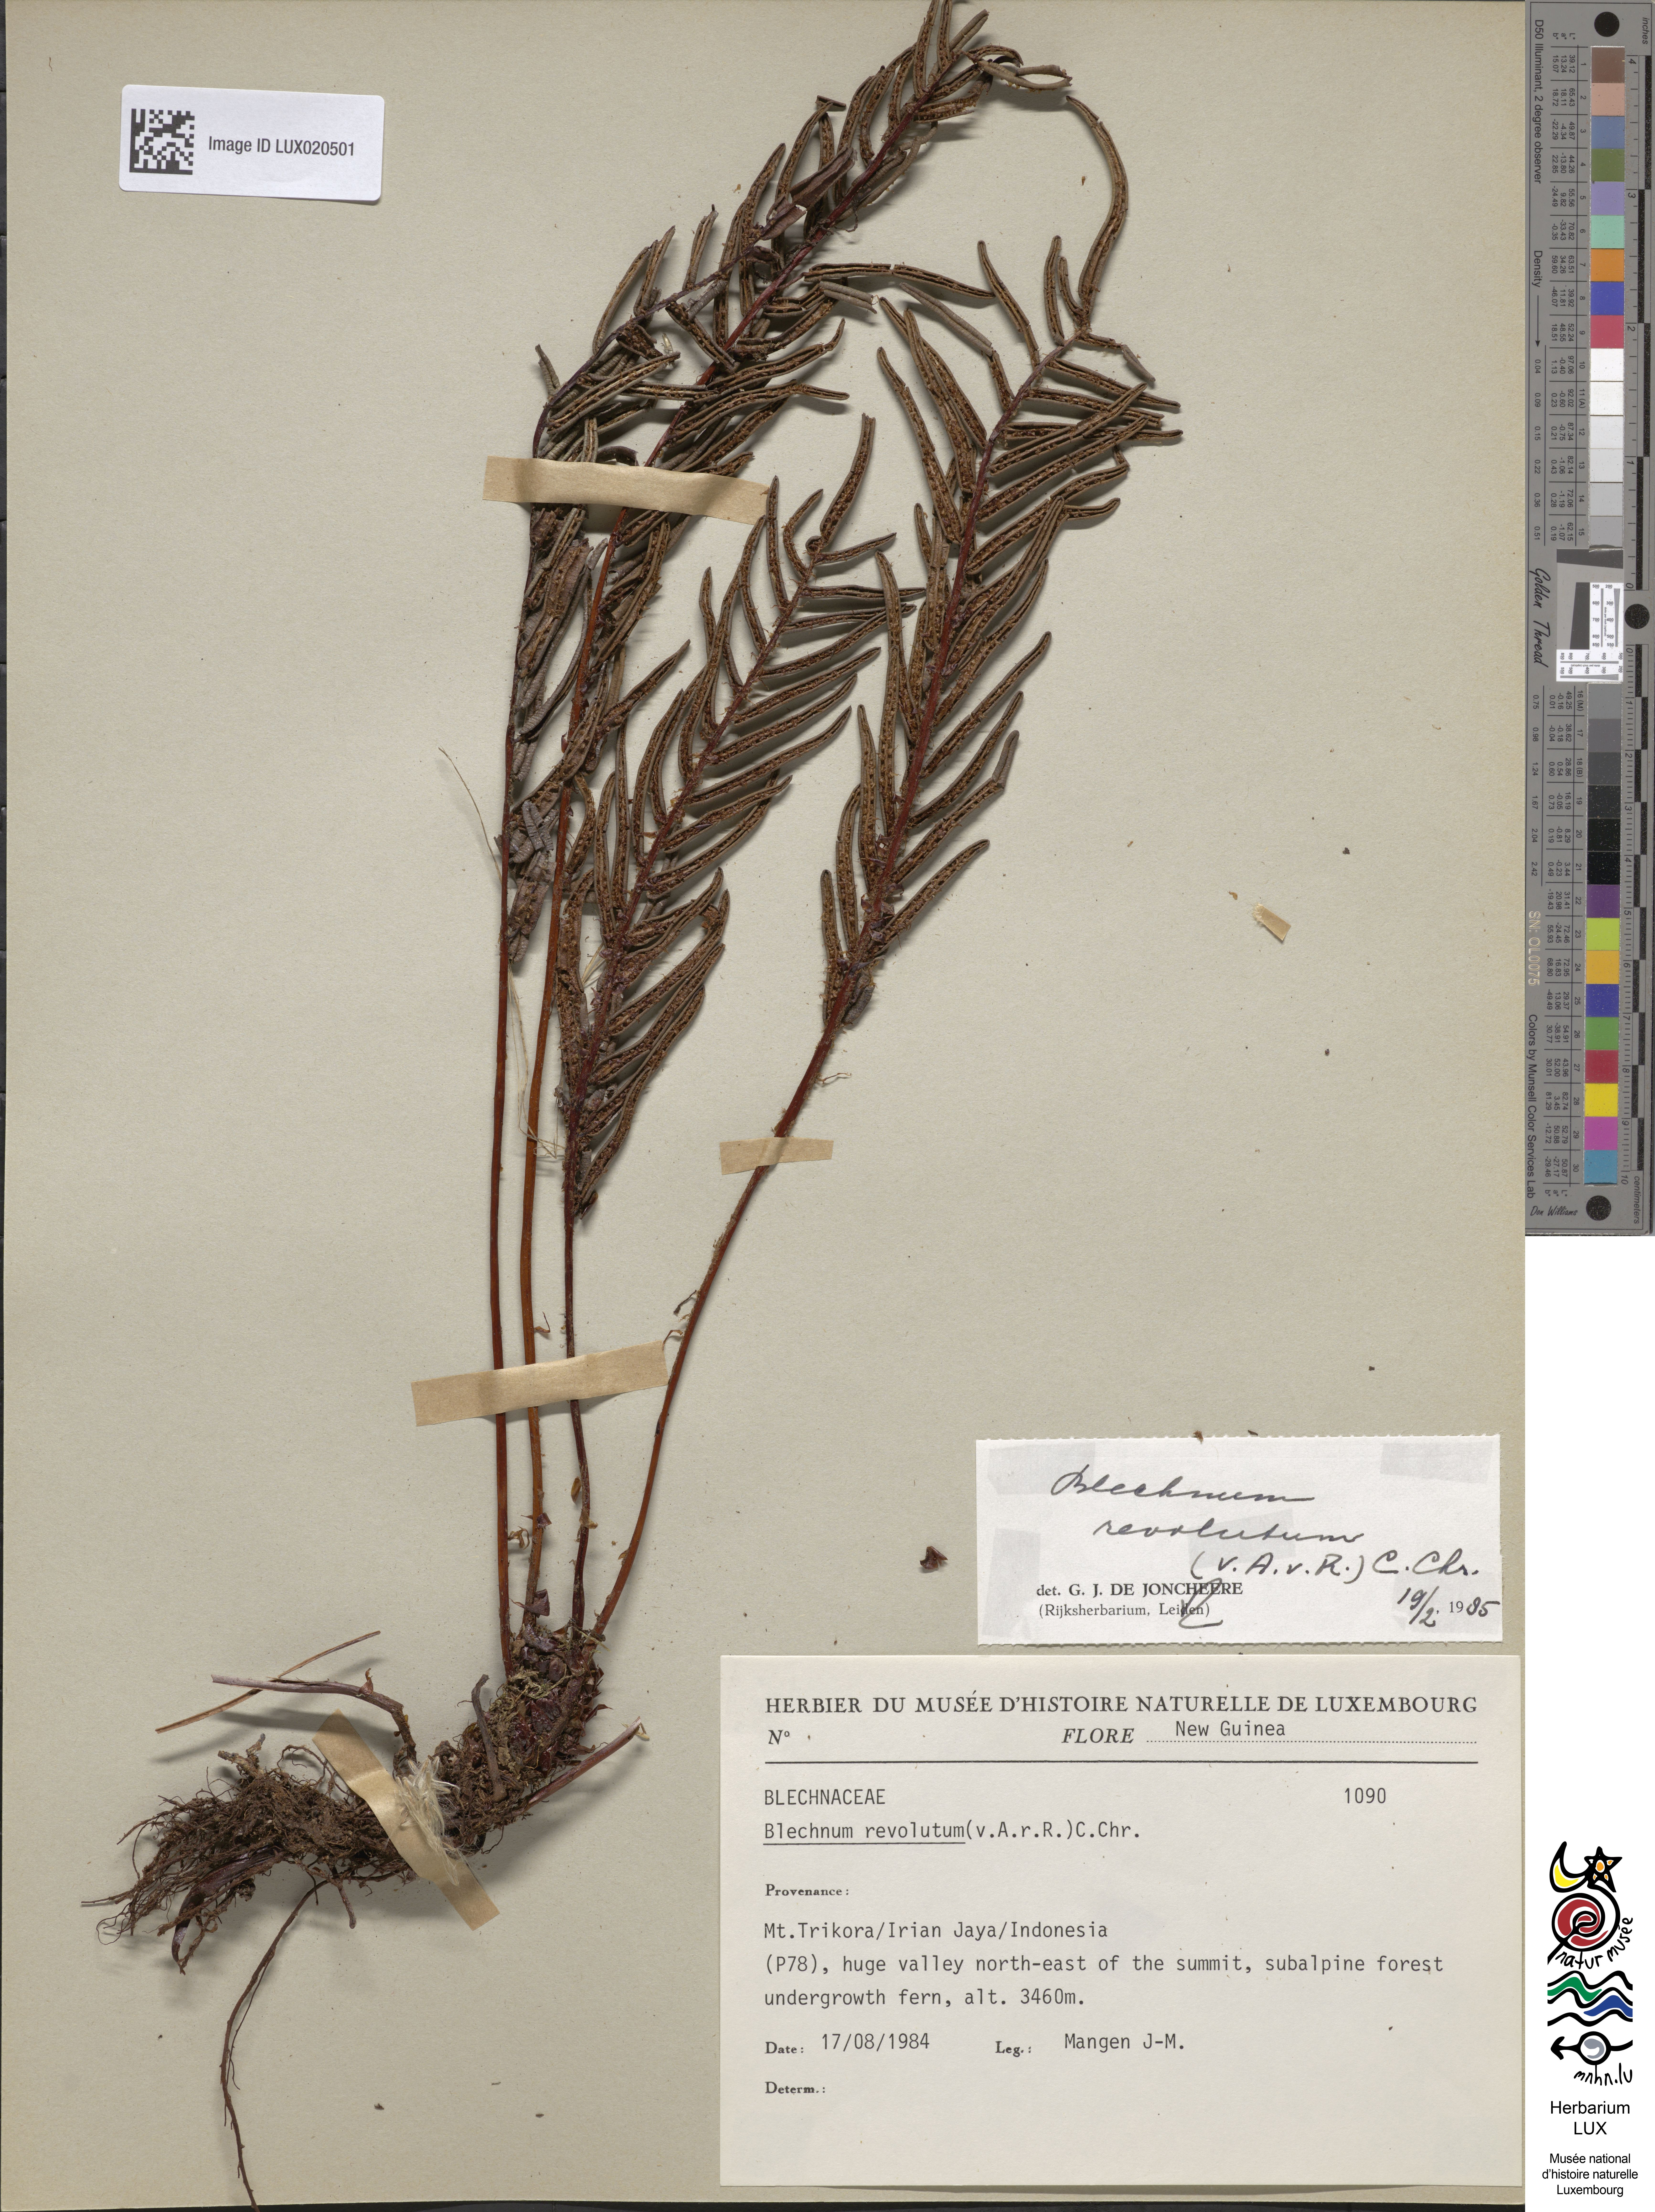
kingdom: Plantae
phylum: Tracheophyta
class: Polypodiopsida
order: Polypodiales
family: Blechnaceae
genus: Parablechnum
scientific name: Parablechnum revolutum
